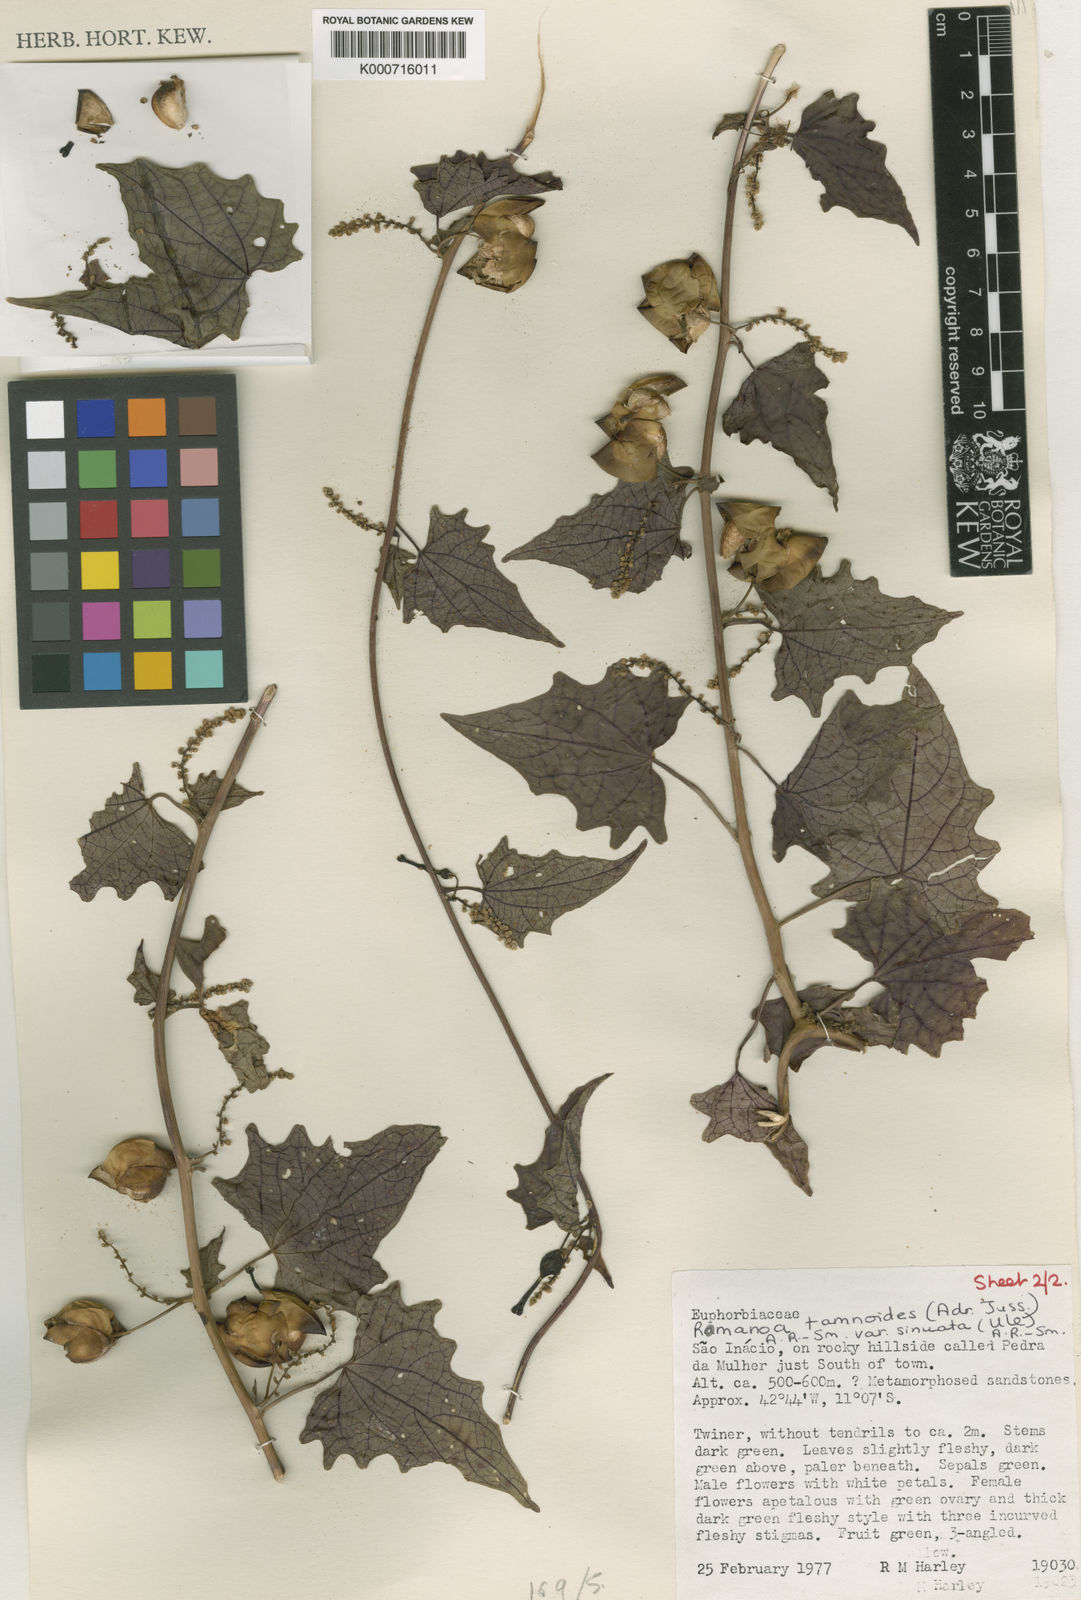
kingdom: Plantae
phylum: Tracheophyta
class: Magnoliopsida
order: Malpighiales
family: Euphorbiaceae
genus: Romanoa
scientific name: Romanoa tamnoides
